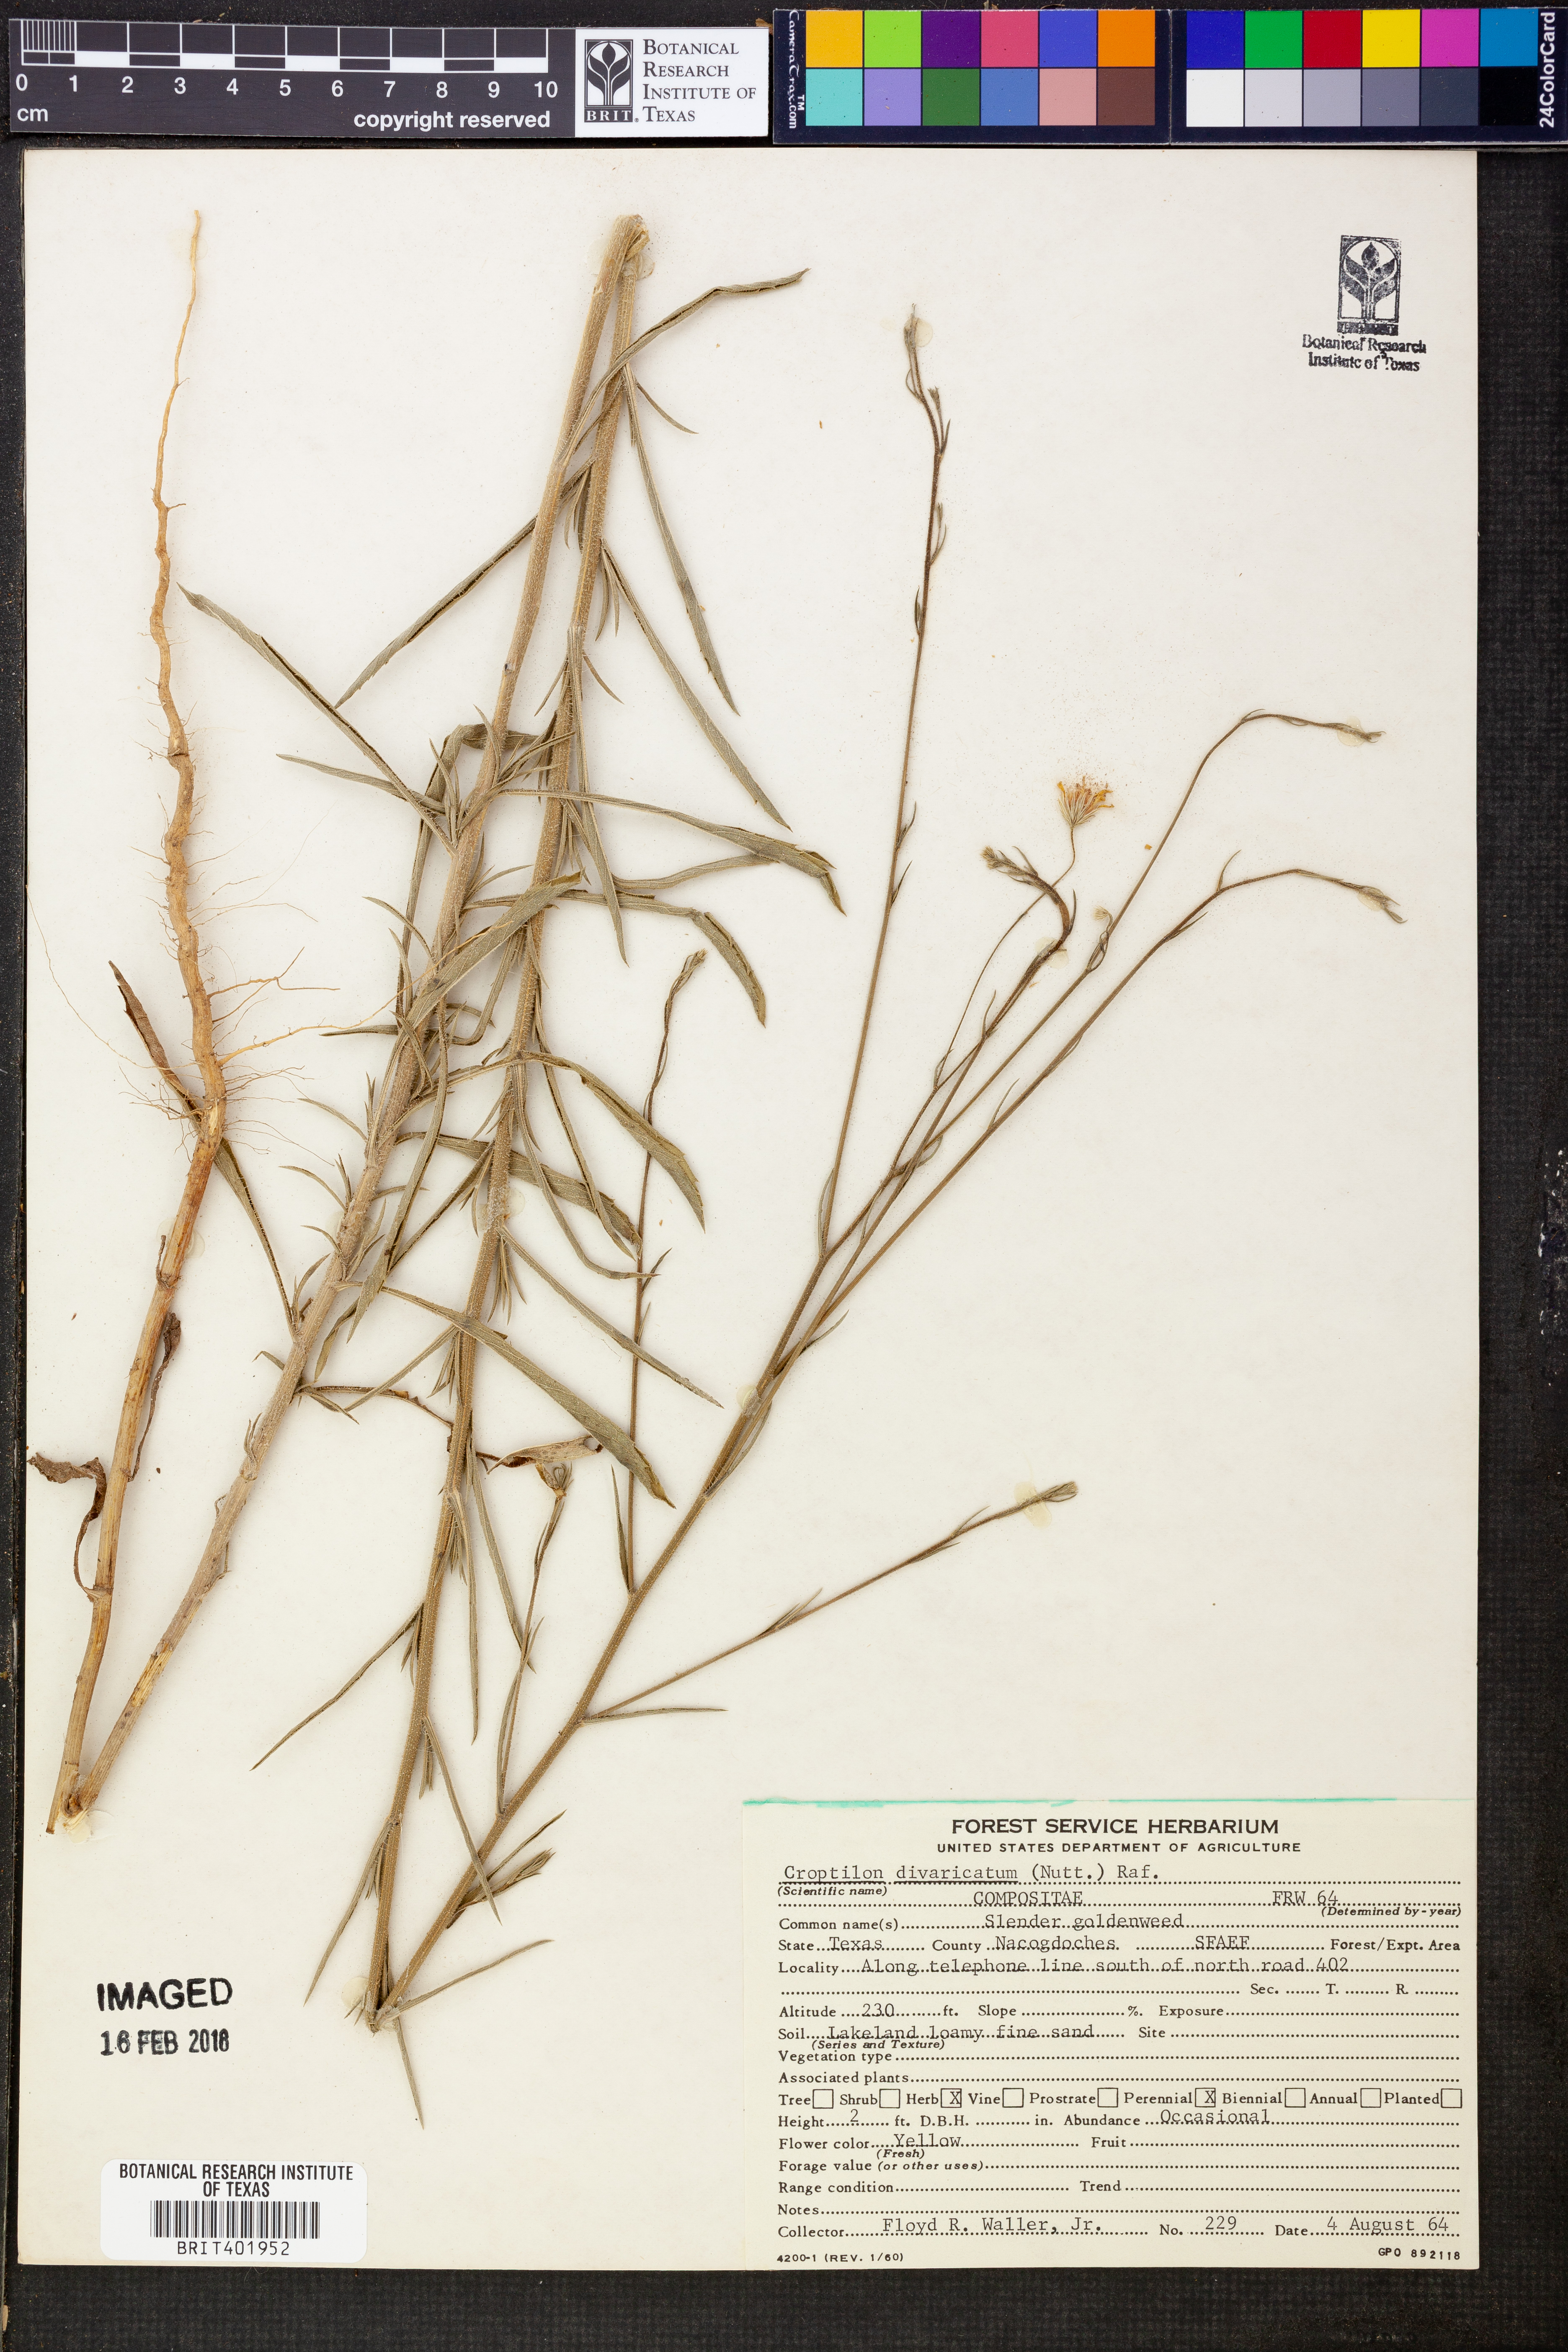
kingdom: Plantae
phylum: Tracheophyta
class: Magnoliopsida
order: Asterales
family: Asteraceae
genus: Croptilon
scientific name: Croptilon divaricatum
